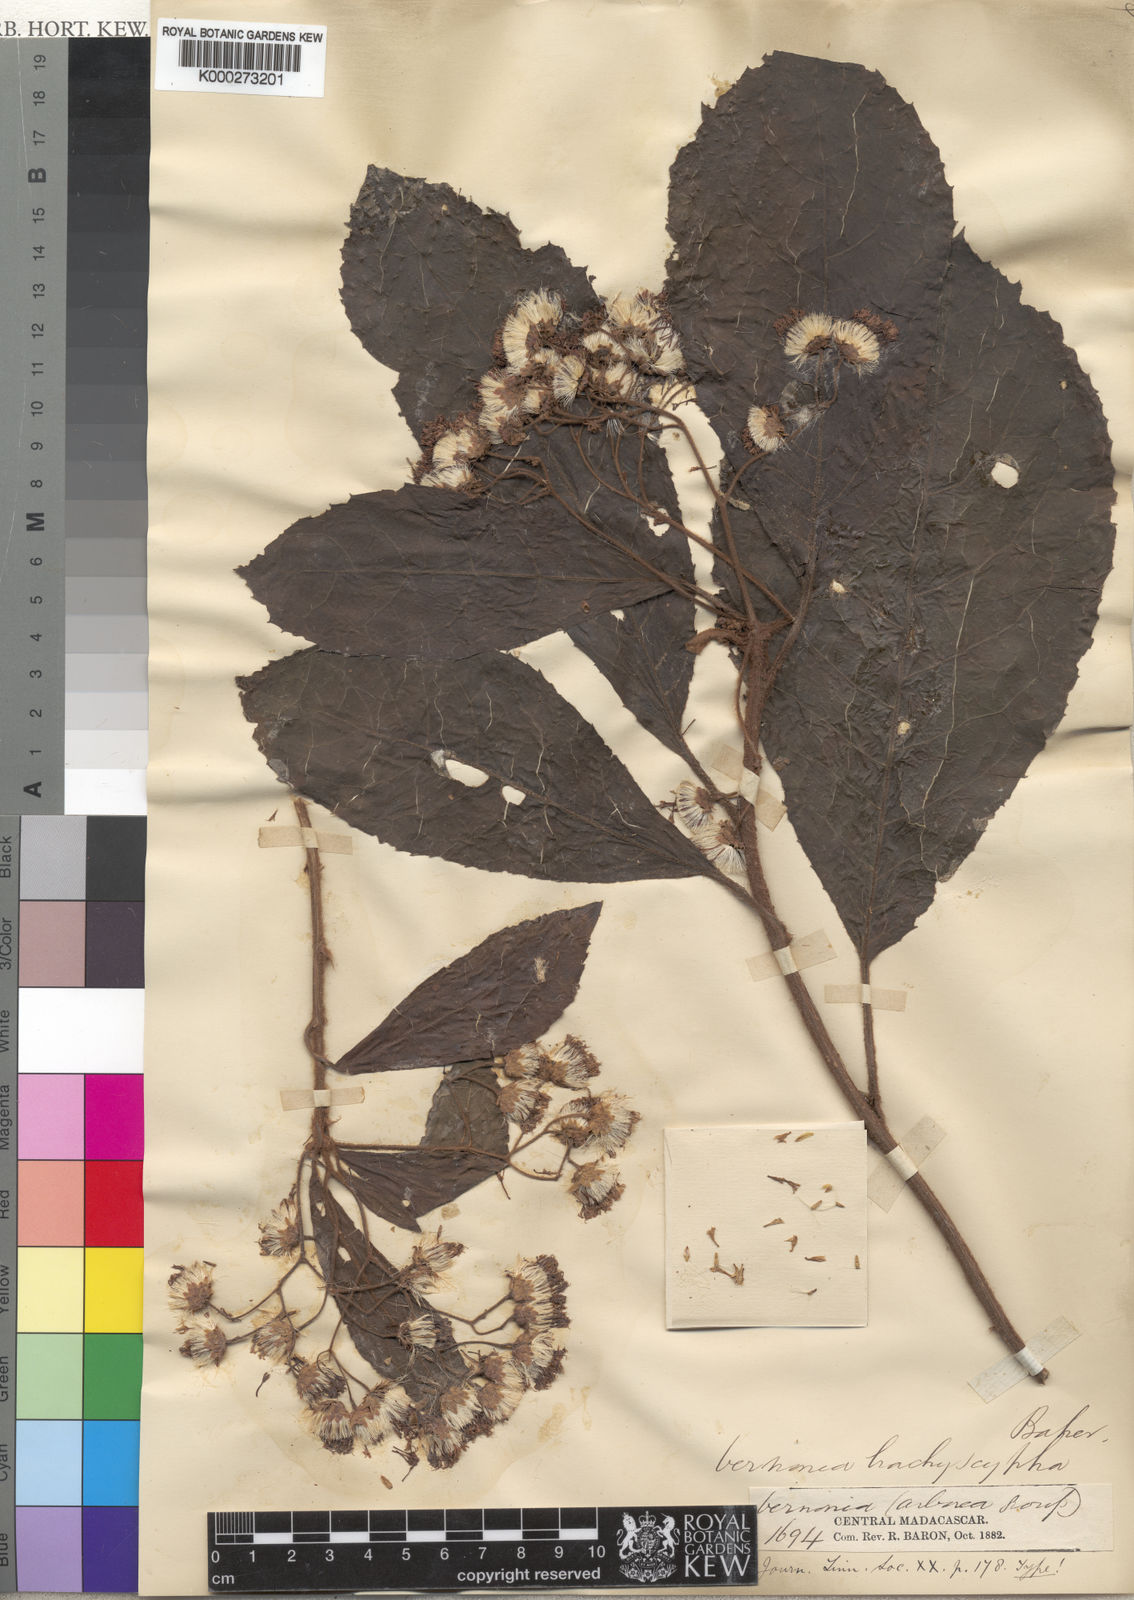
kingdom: Plantae
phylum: Tracheophyta
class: Magnoliopsida
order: Asterales
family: Asteraceae
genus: Vernonia
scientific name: Vernonia pachyclada
